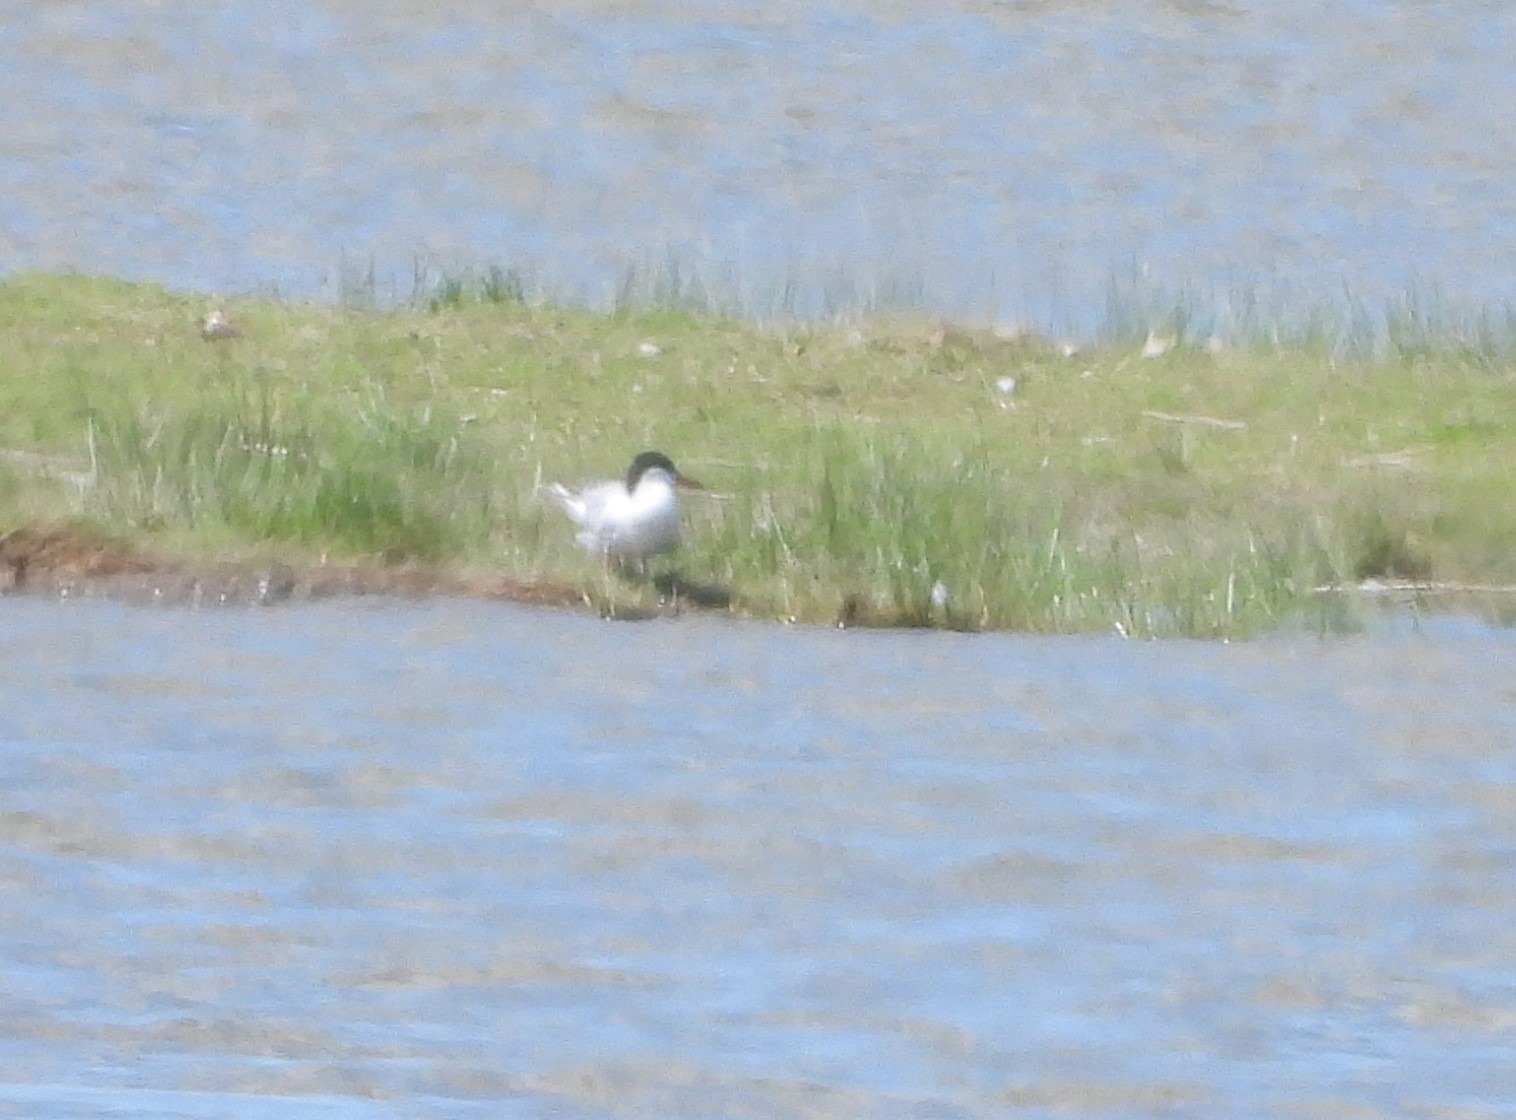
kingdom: Animalia
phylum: Chordata
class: Aves
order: Charadriiformes
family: Laridae
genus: Sterna
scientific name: Sterna hirundo
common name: Fjordterne
